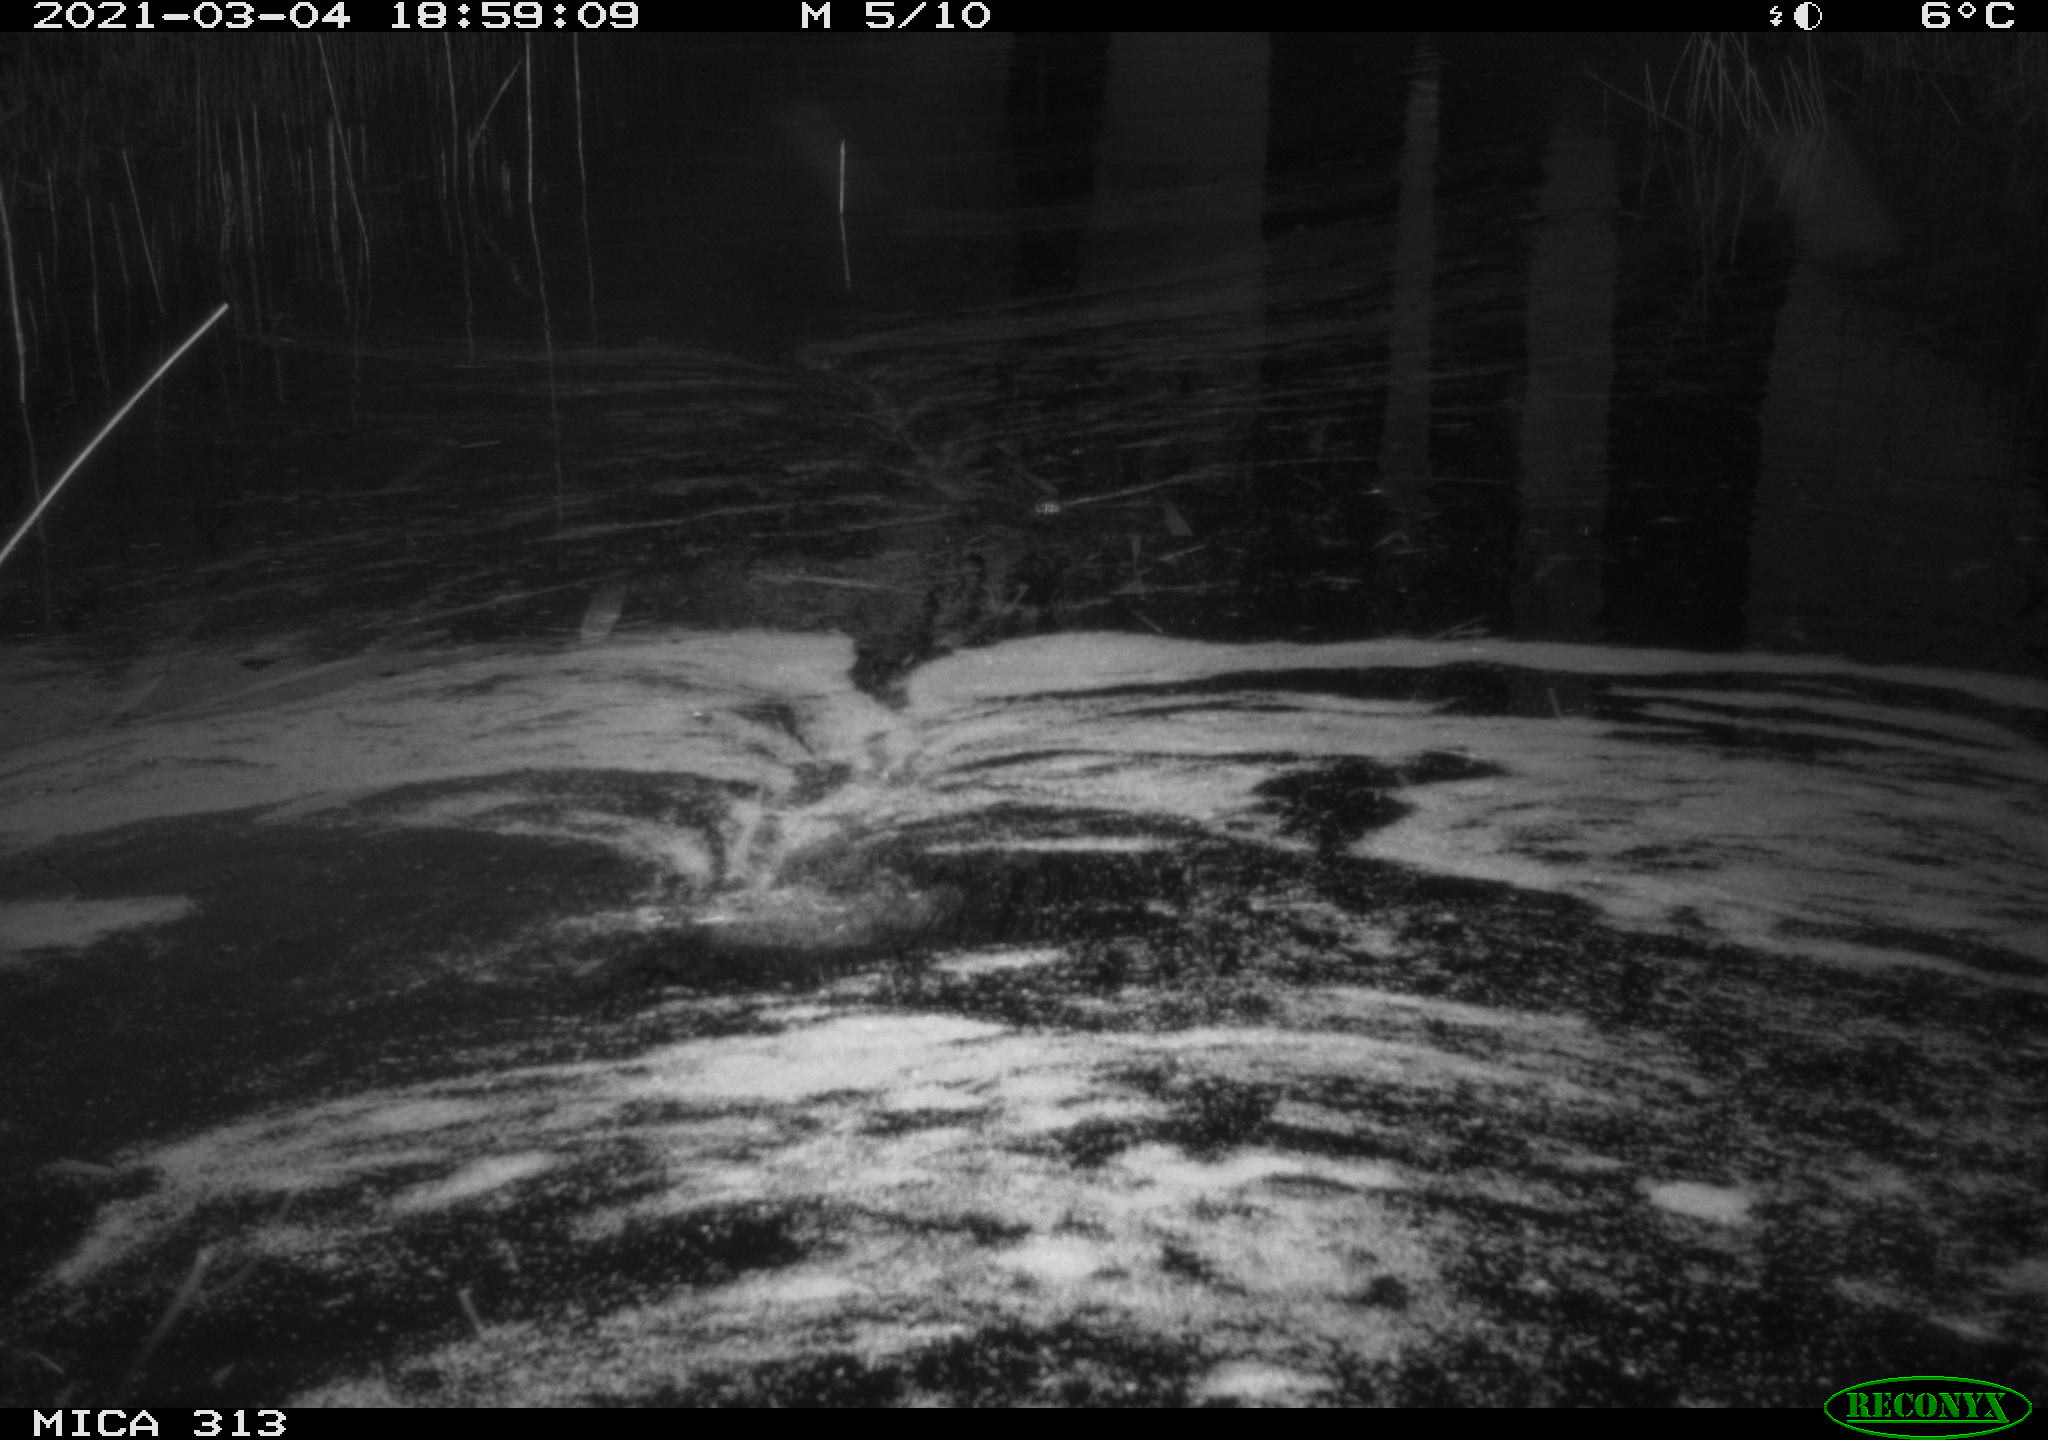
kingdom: Animalia
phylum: Chordata
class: Aves
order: Gruiformes
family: Rallidae
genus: Gallinula
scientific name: Gallinula chloropus
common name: Common moorhen
